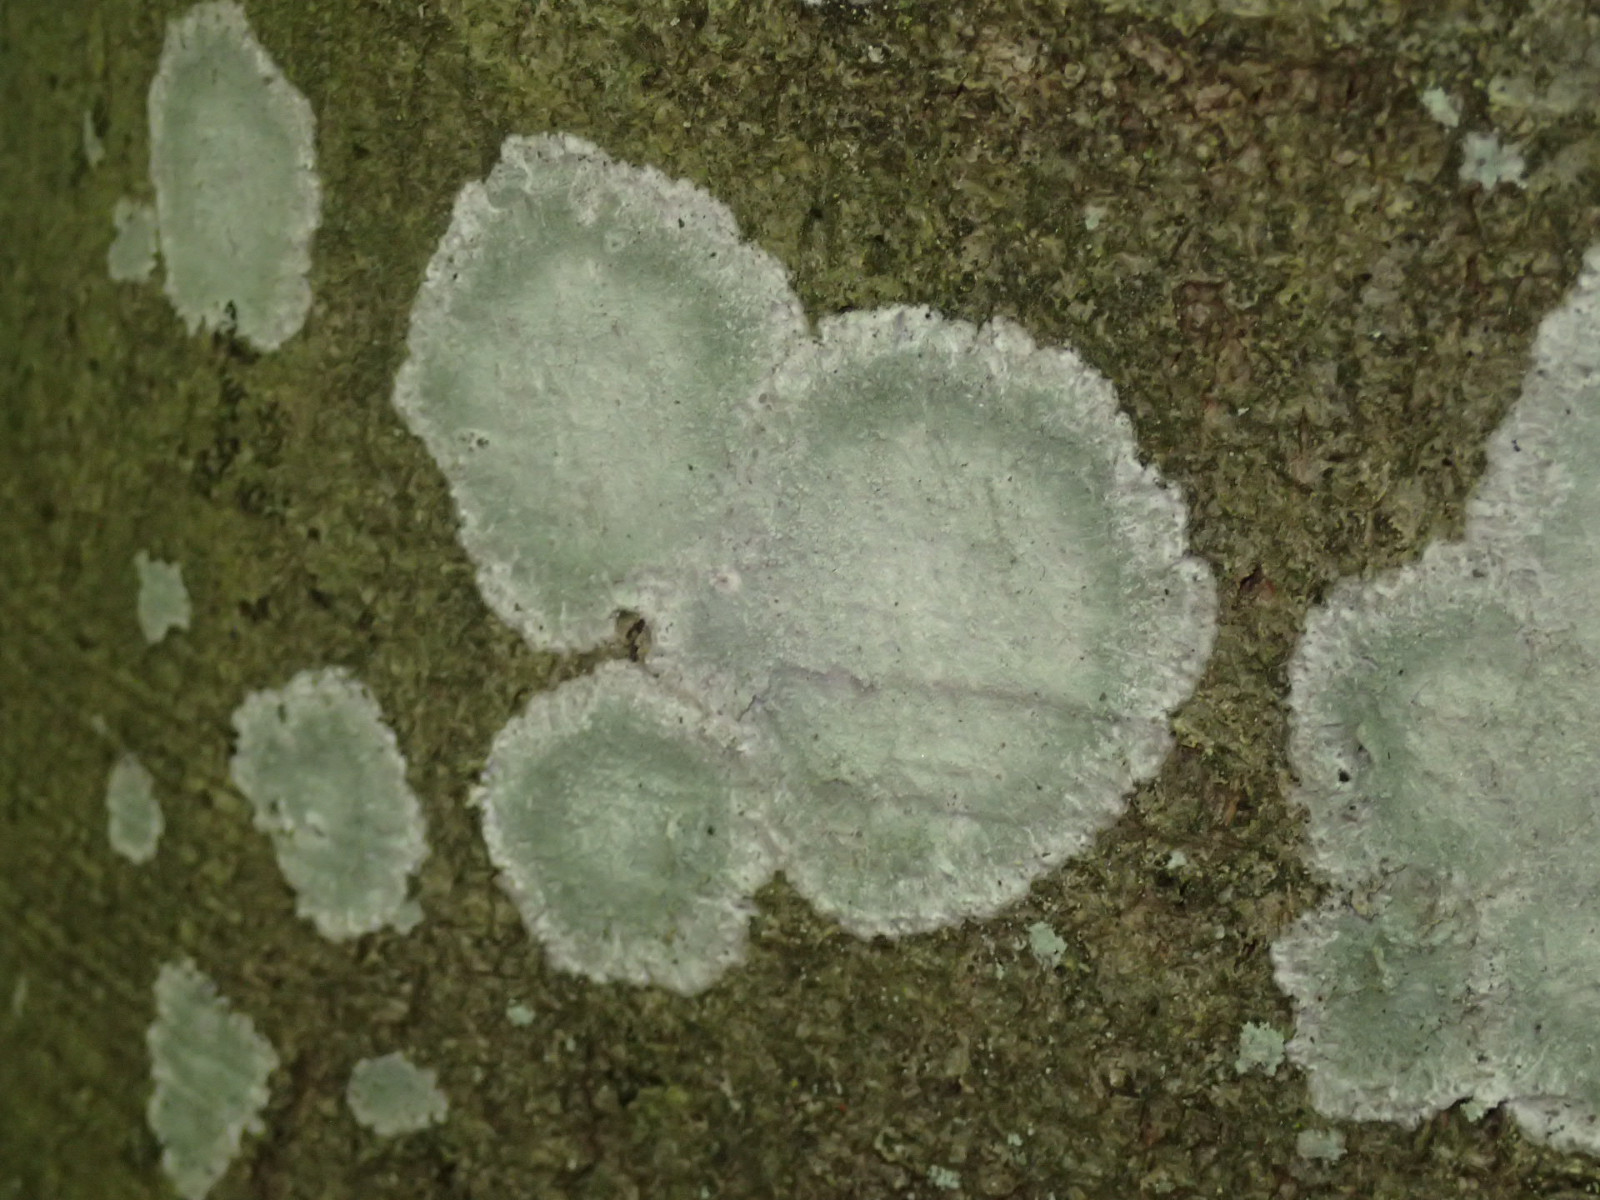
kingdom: Fungi
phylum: Ascomycota
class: Lecanoromycetes
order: Ostropales
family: Phlyctidaceae
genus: Phlyctis
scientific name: Phlyctis argena
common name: almindelig sølvlav
